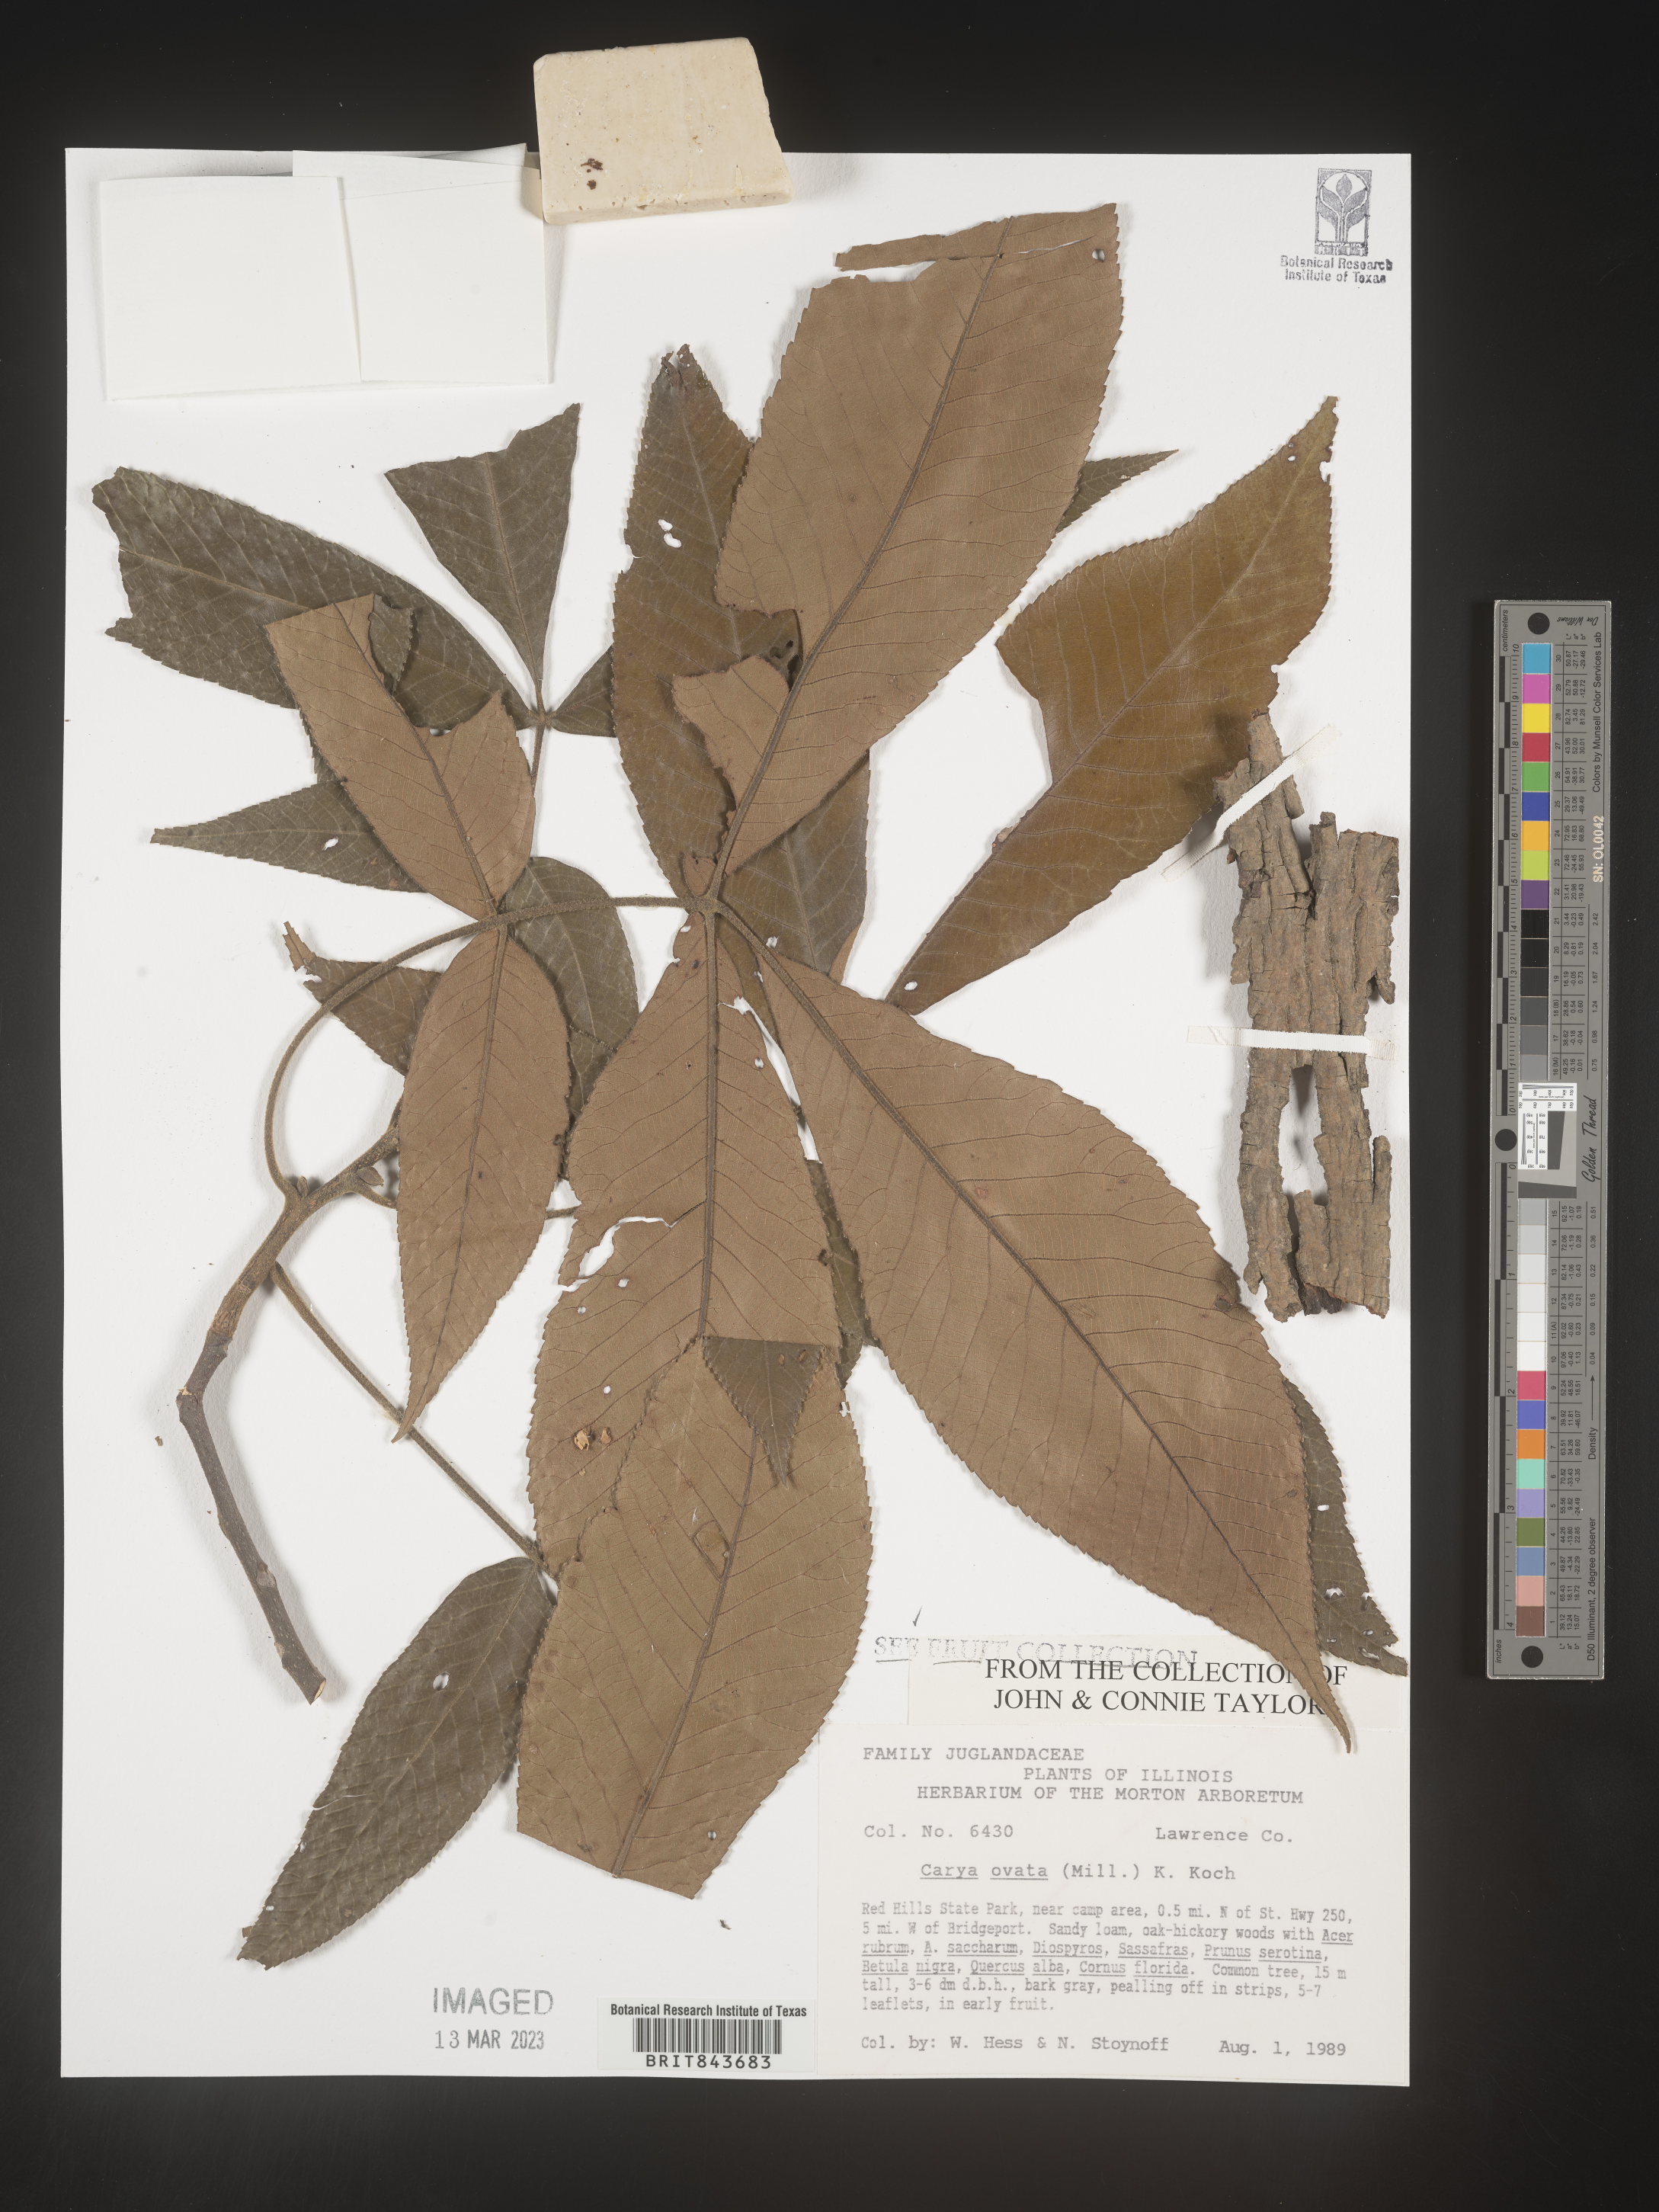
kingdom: Plantae
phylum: Tracheophyta
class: Magnoliopsida
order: Fagales
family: Juglandaceae
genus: Carya
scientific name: Carya ovata
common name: Shagbark hickory
